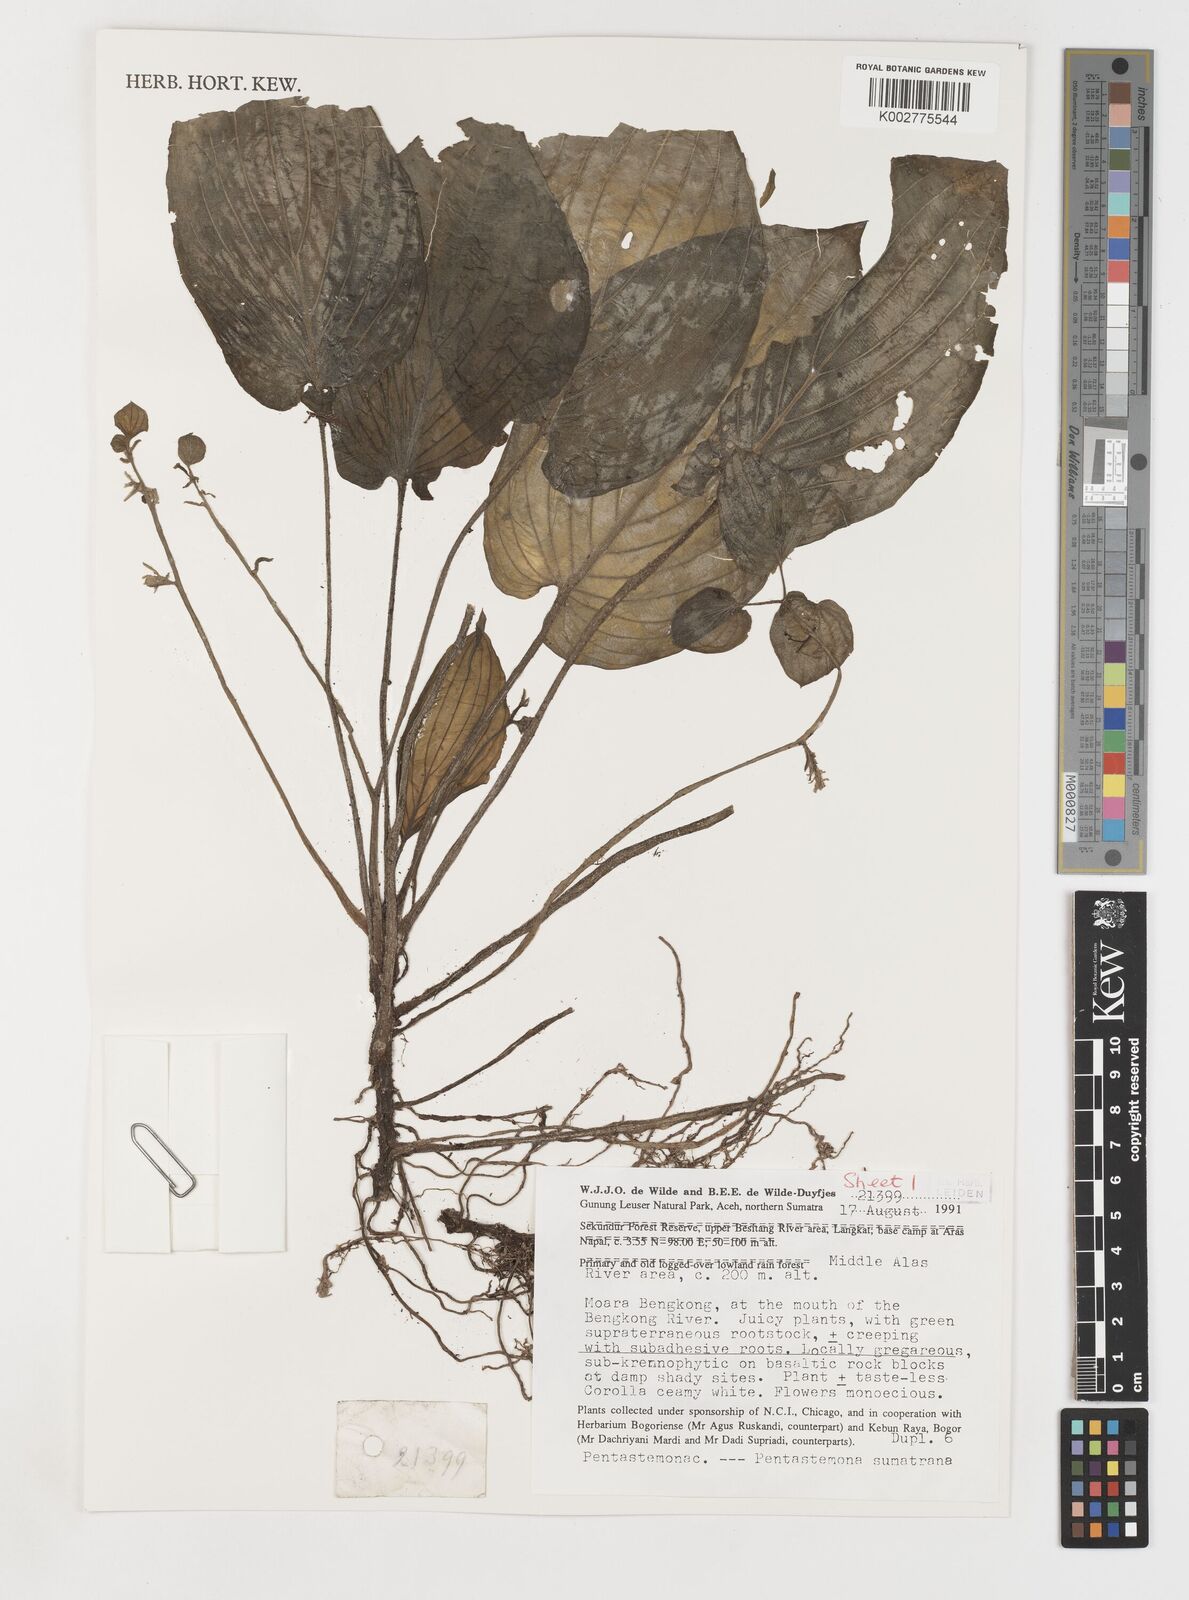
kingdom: Plantae
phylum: Tracheophyta
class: Liliopsida
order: Pandanales
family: Stemonaceae
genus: Pentastemona
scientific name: Pentastemona sumatrana
